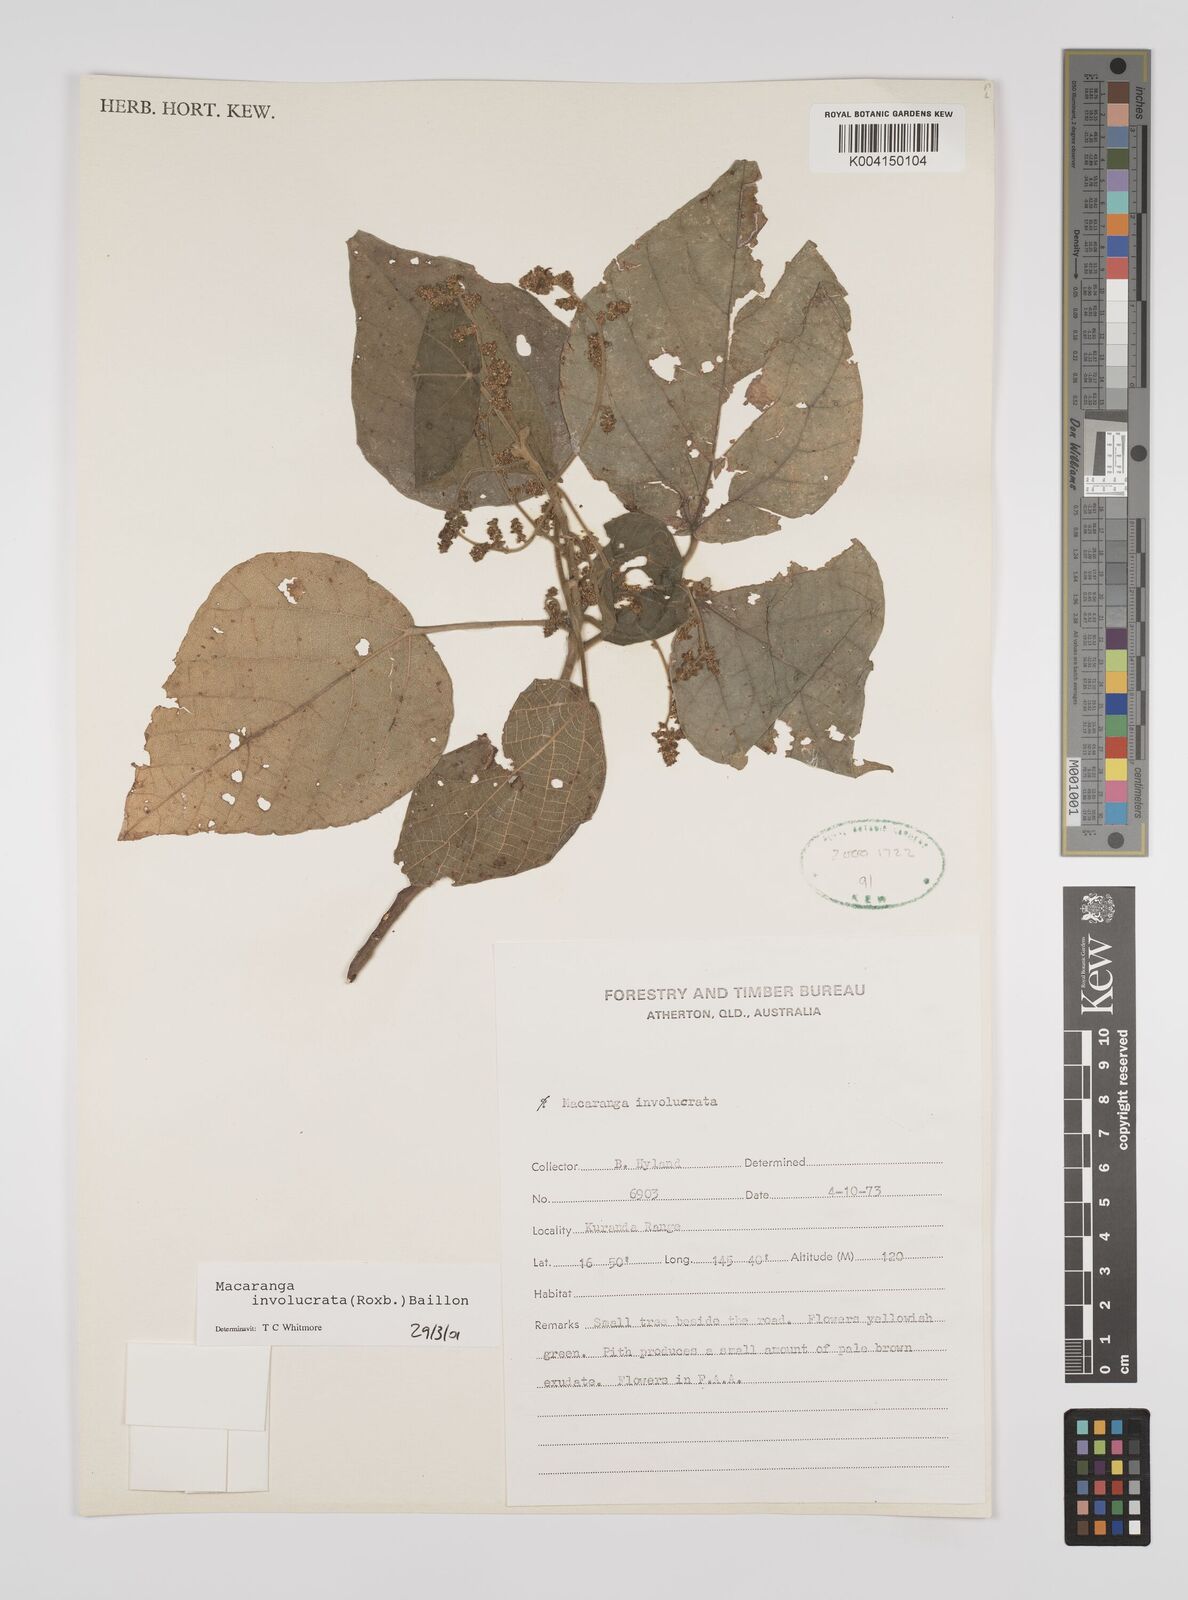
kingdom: Plantae
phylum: Tracheophyta
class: Magnoliopsida
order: Malpighiales
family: Euphorbiaceae
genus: Macaranga
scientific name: Macaranga involucrata
